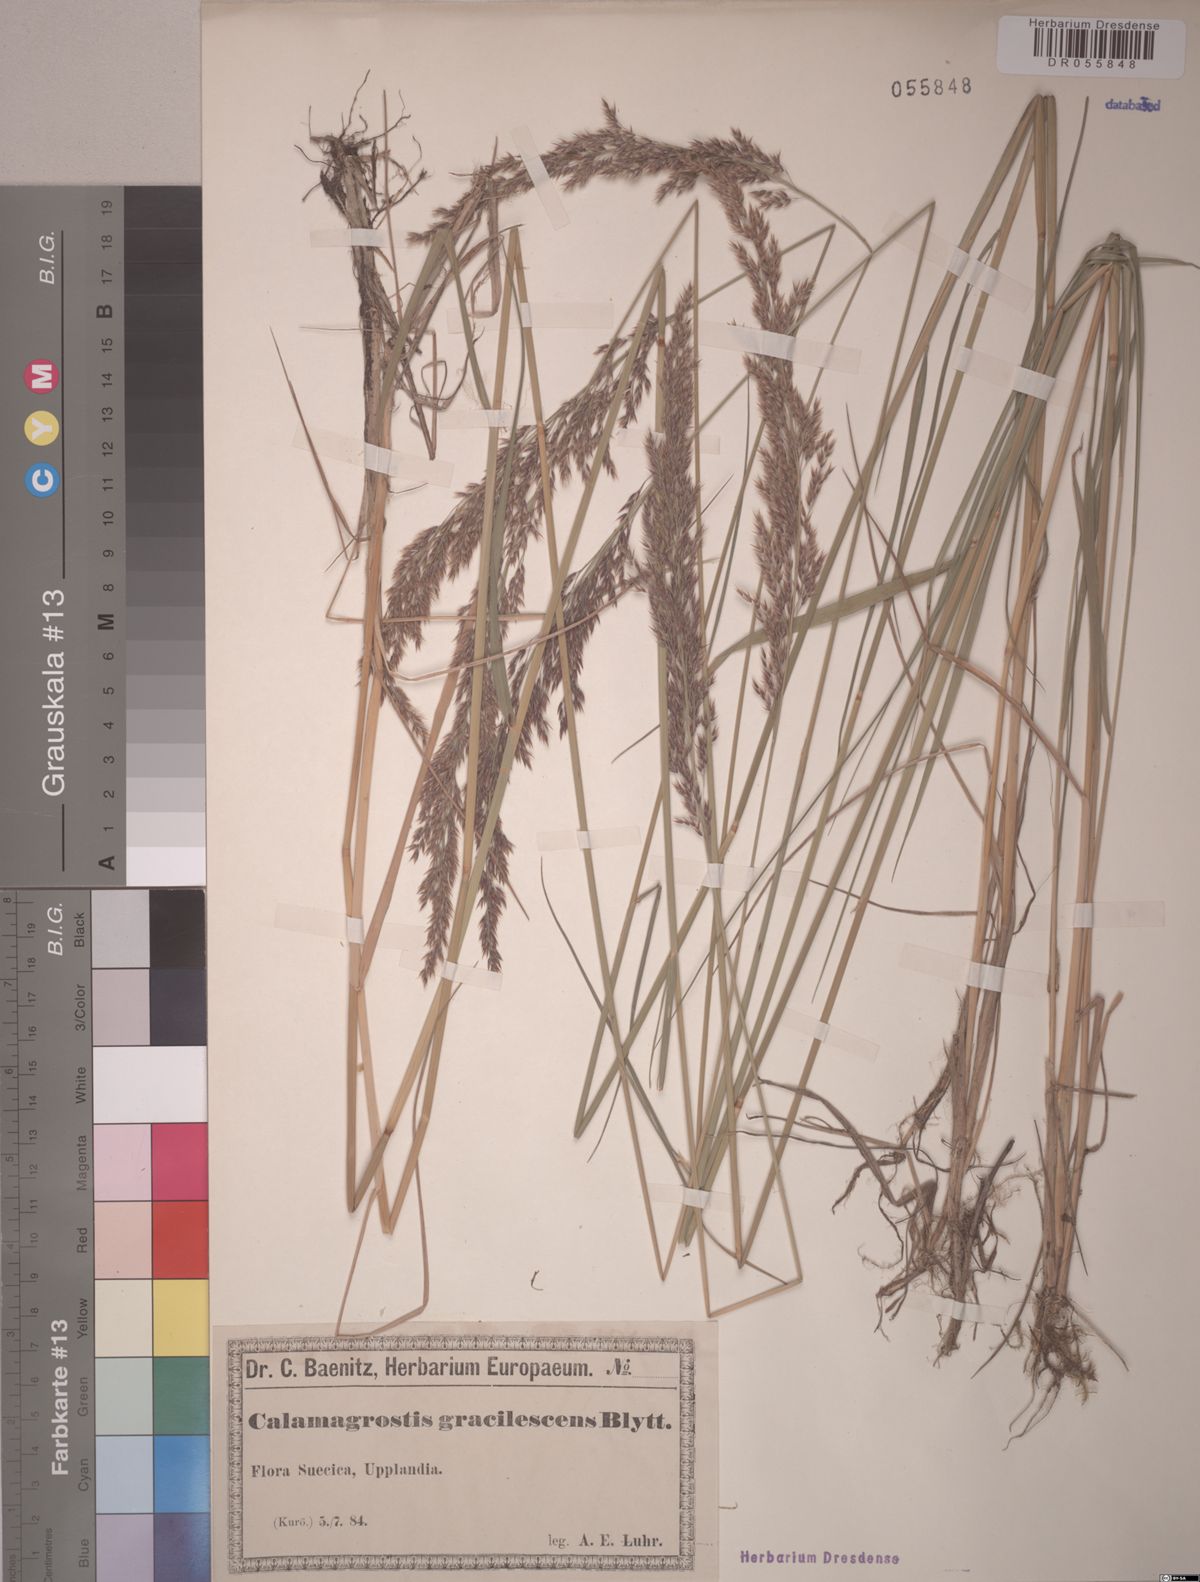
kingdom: Plantae
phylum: Tracheophyta
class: Liliopsida
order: Poales
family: Poaceae
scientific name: Poaceae
